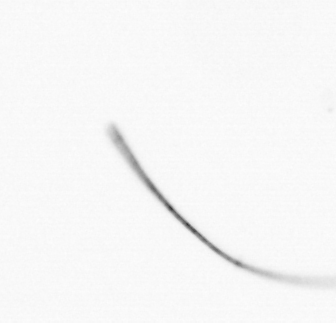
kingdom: Chromista
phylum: Ochrophyta
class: Bacillariophyceae
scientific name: Bacillariophyceae
